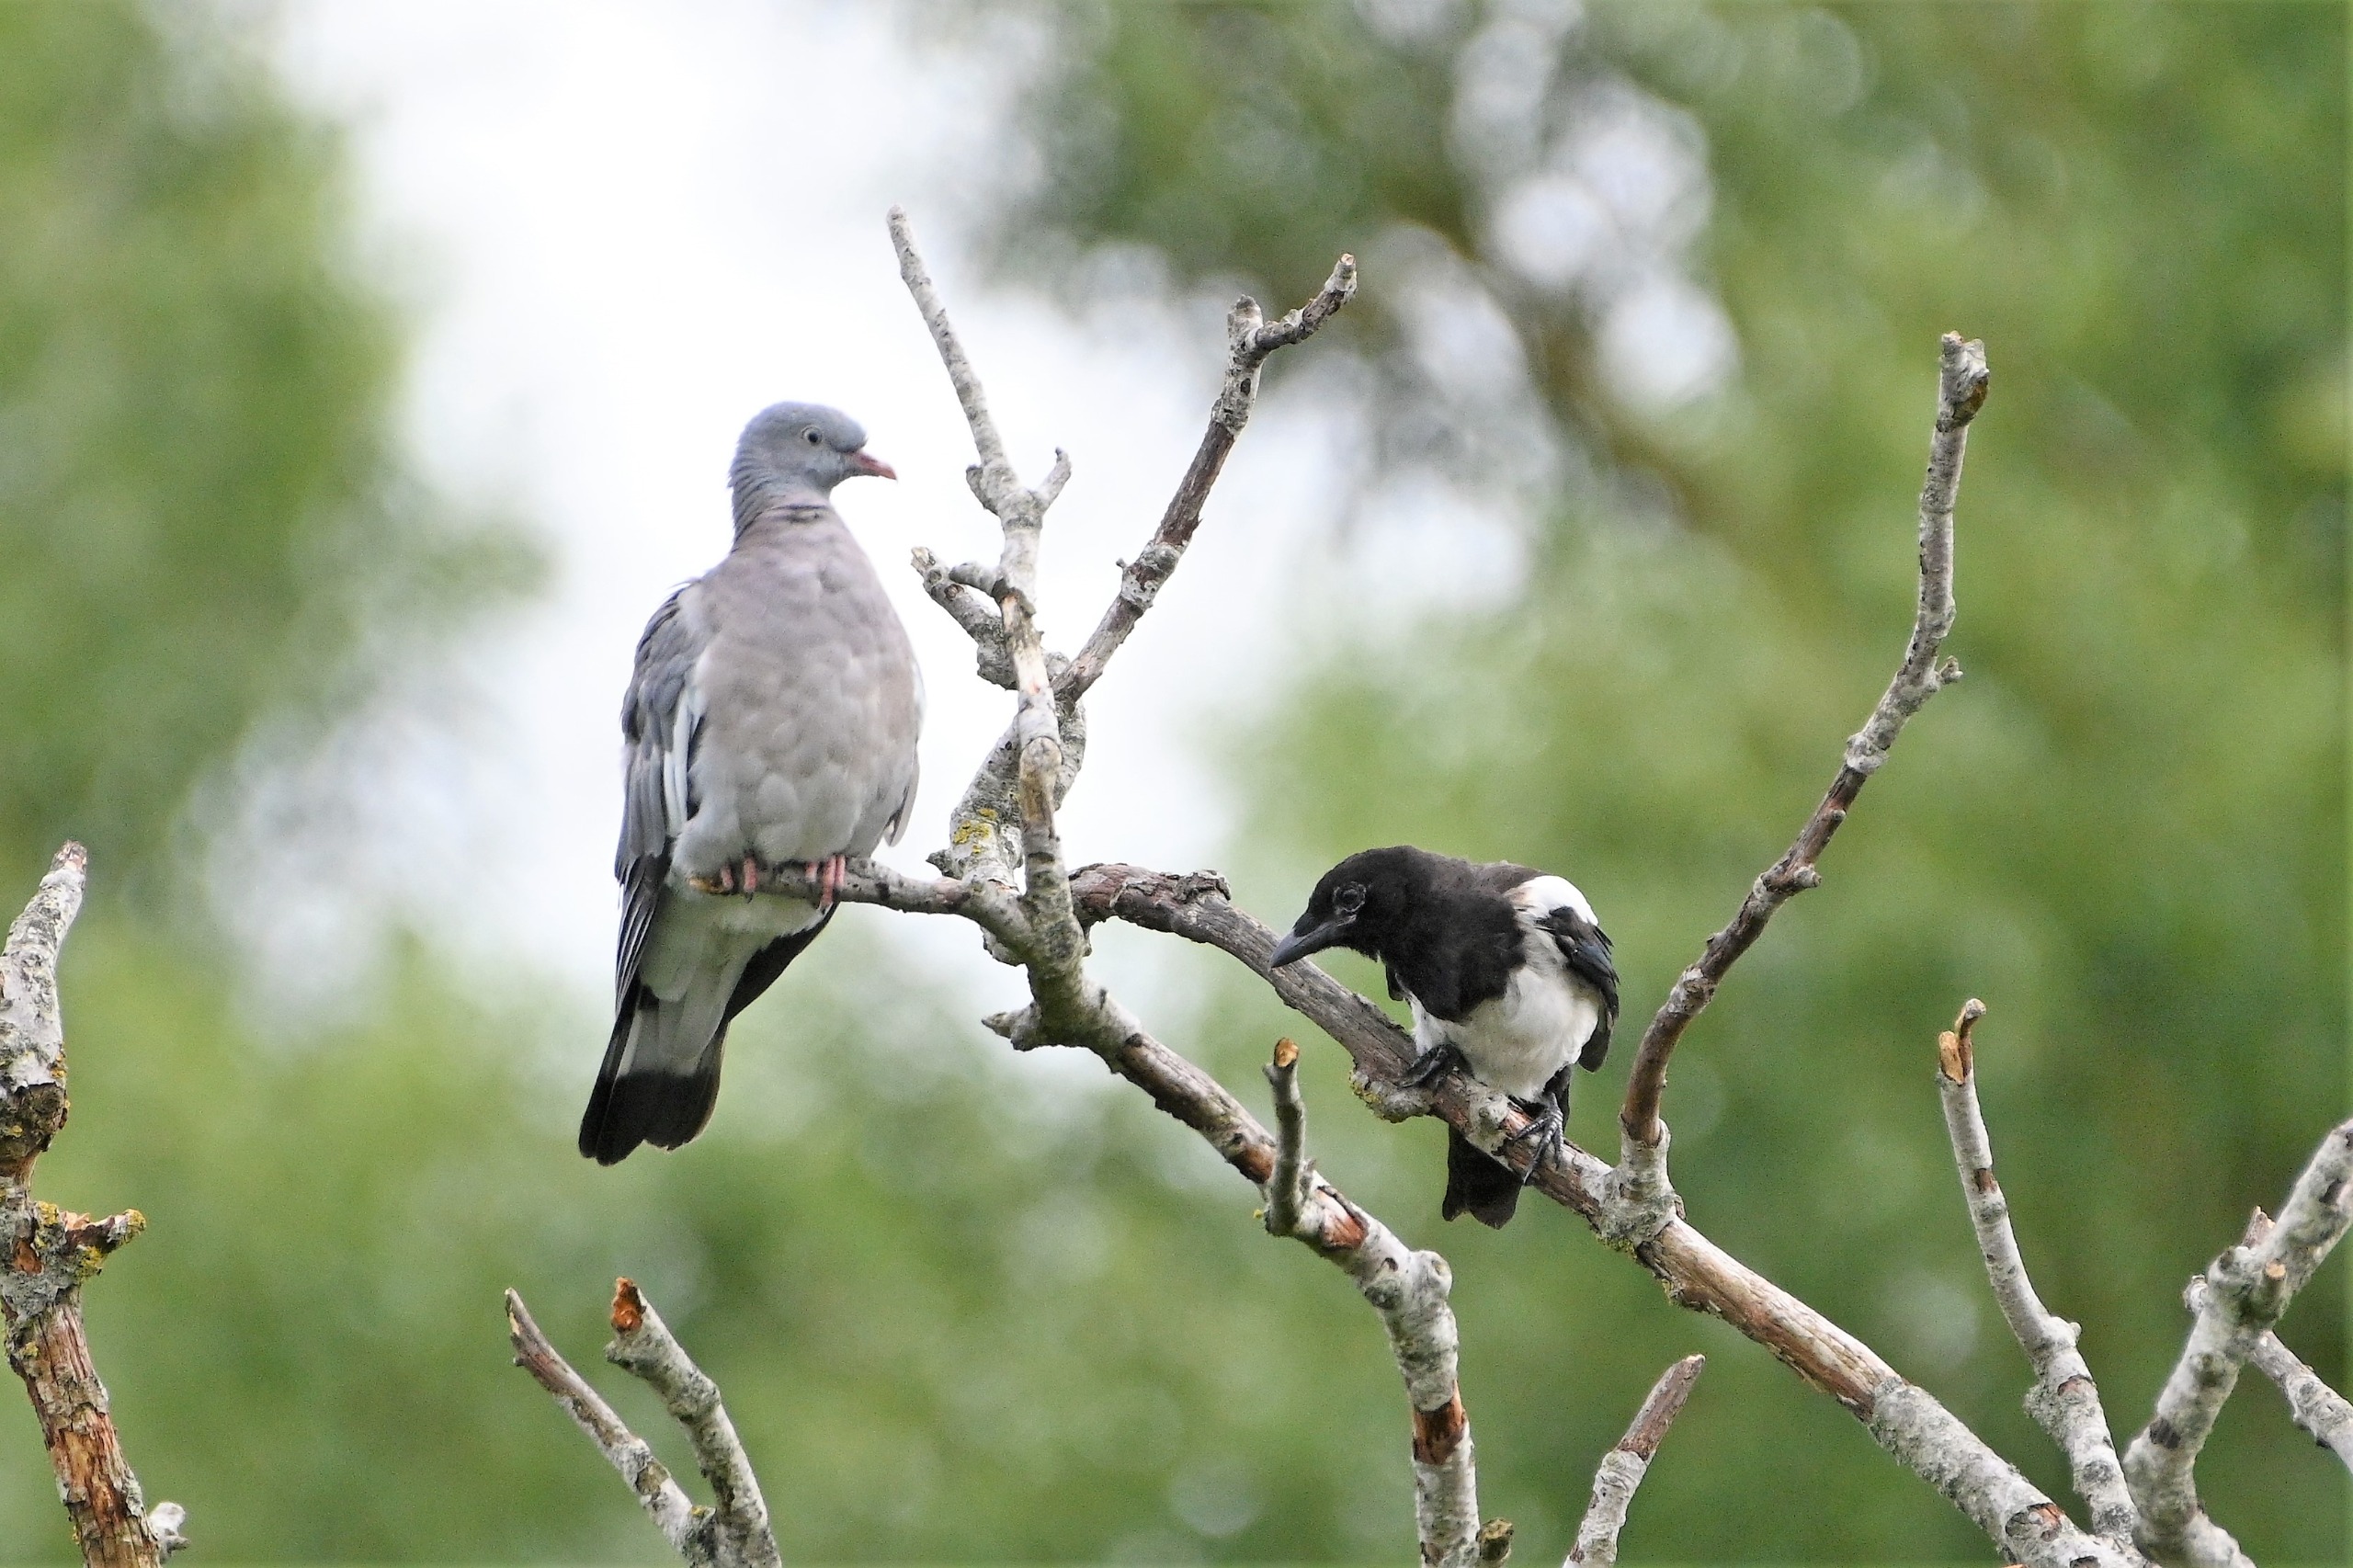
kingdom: Animalia
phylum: Chordata
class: Aves
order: Columbiformes
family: Columbidae
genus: Columba
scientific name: Columba palumbus
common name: Ringdue
